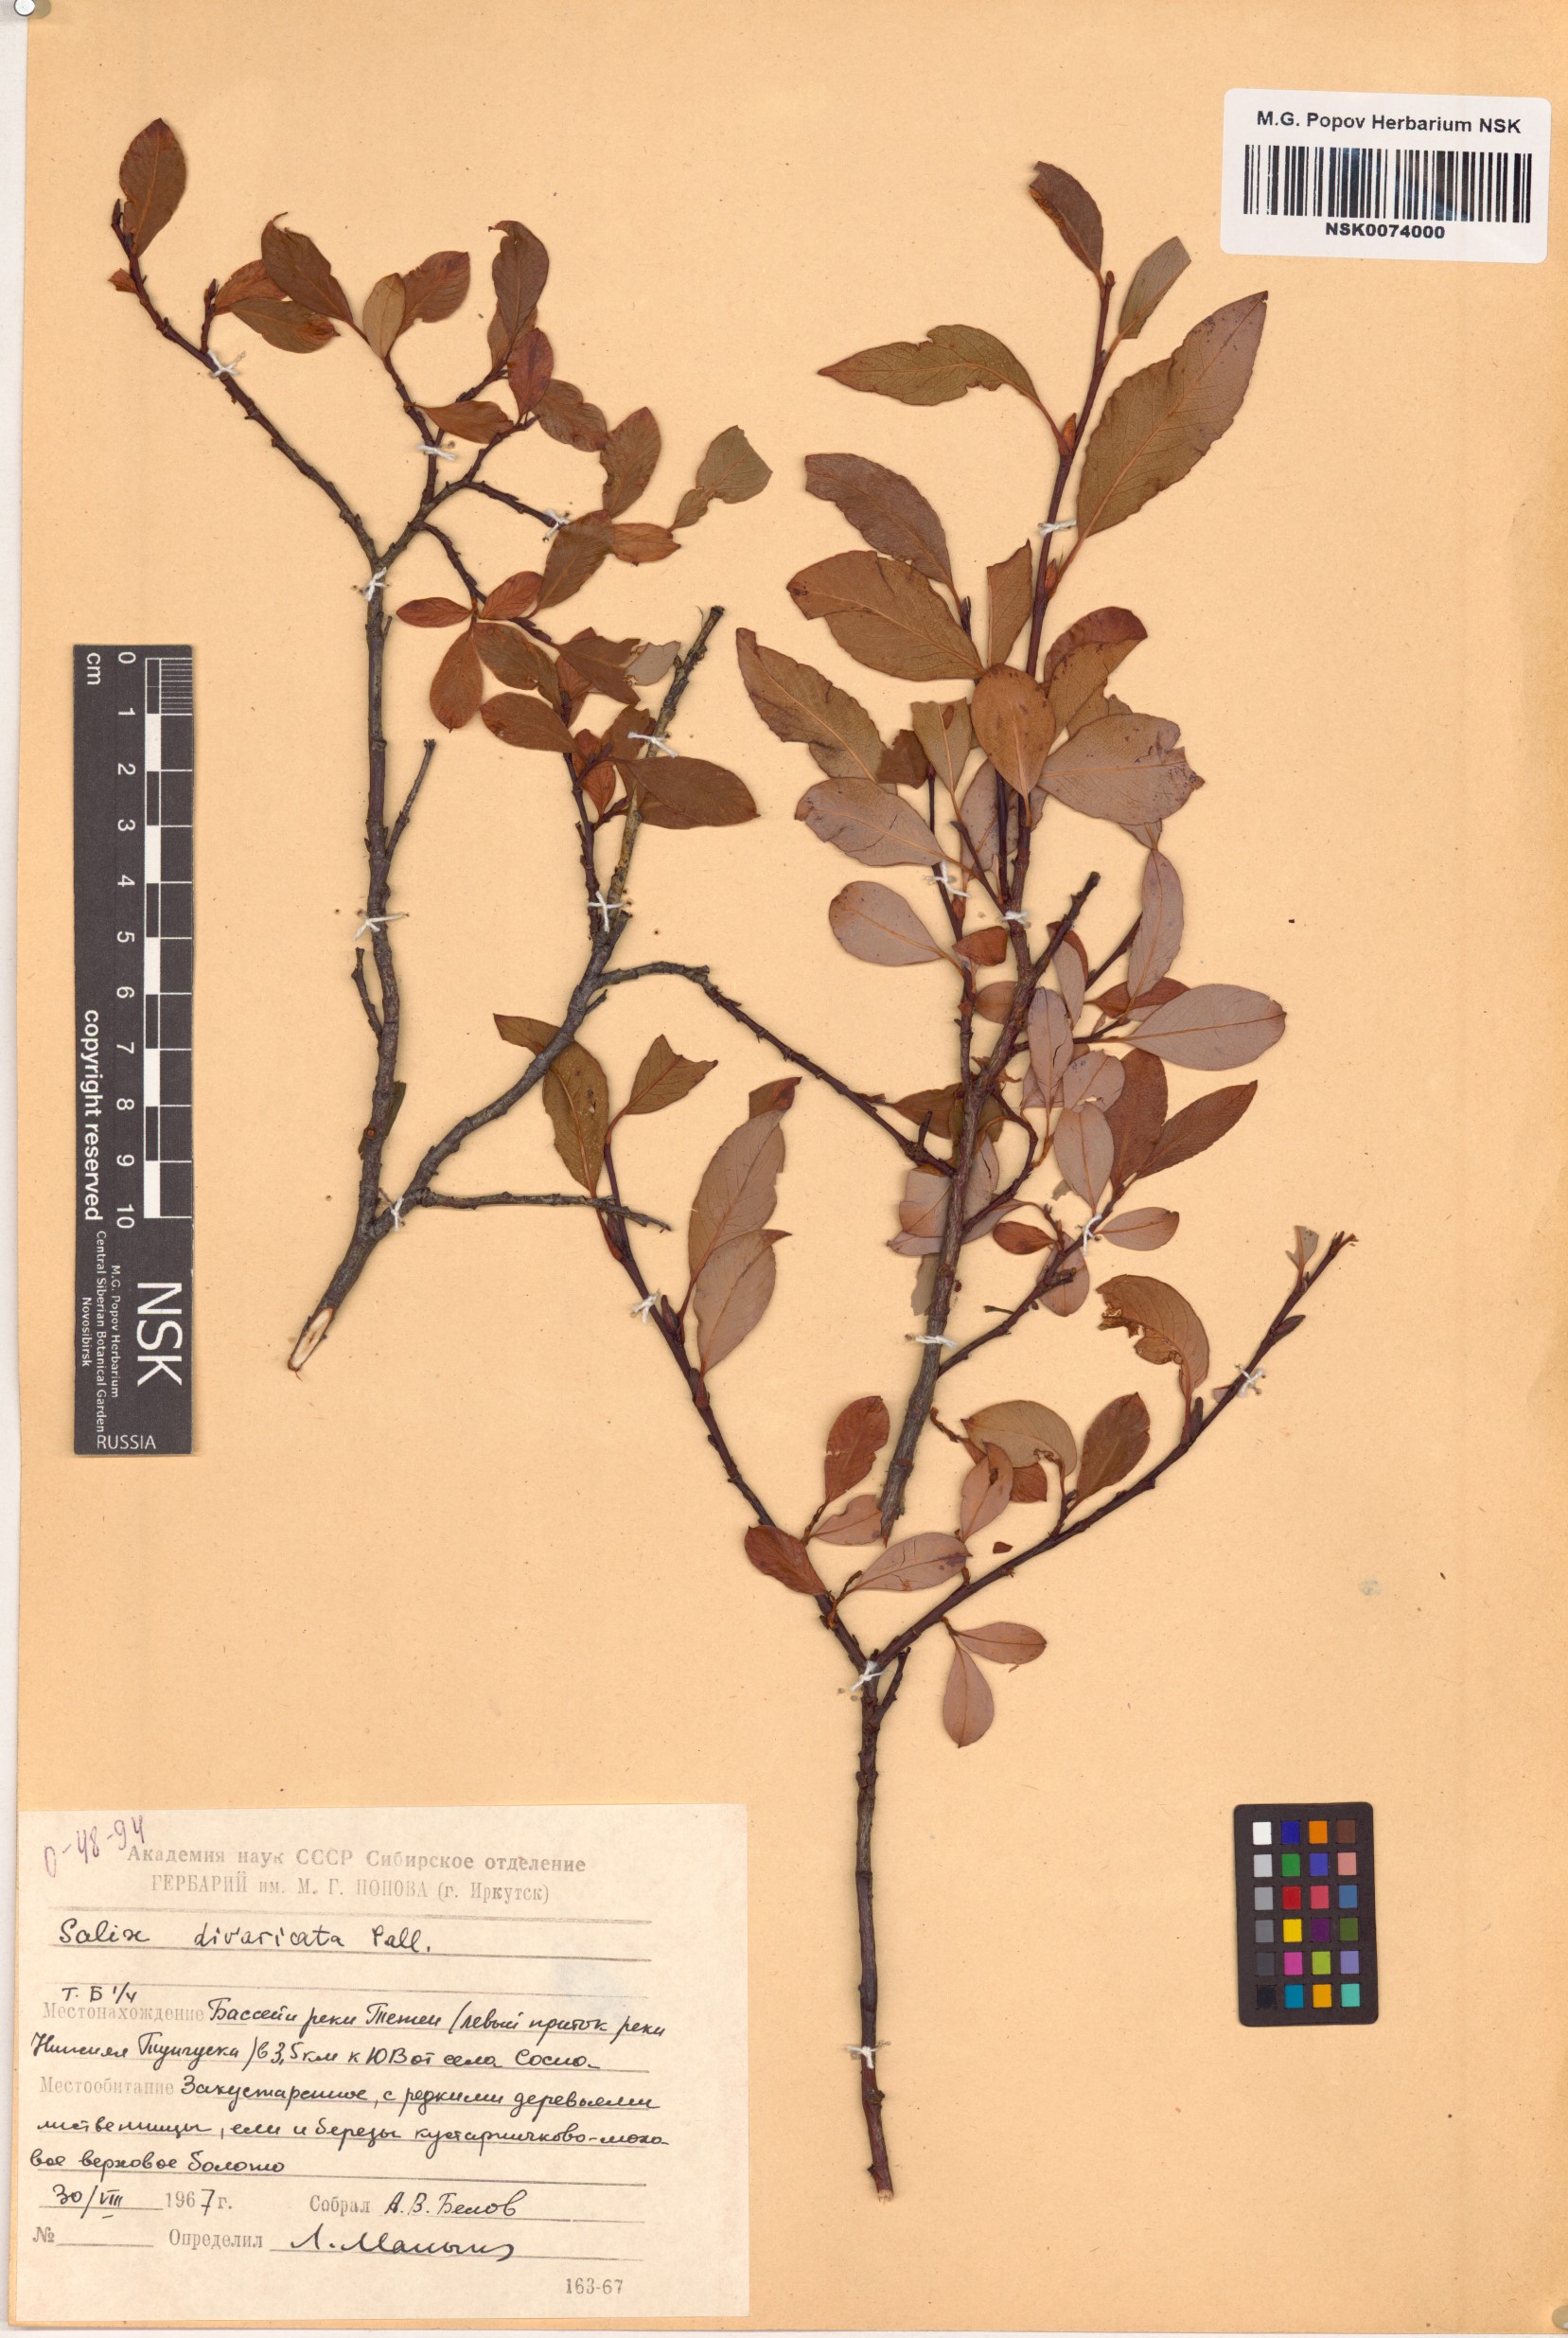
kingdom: Plantae
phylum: Tracheophyta
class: Magnoliopsida
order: Malpighiales
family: Salicaceae
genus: Salix
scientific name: Salix divaricata
